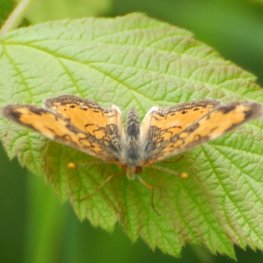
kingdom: Animalia
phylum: Arthropoda
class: Insecta
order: Lepidoptera
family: Nymphalidae
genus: Phyciodes
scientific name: Phyciodes tharos
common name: Northern Crescent
